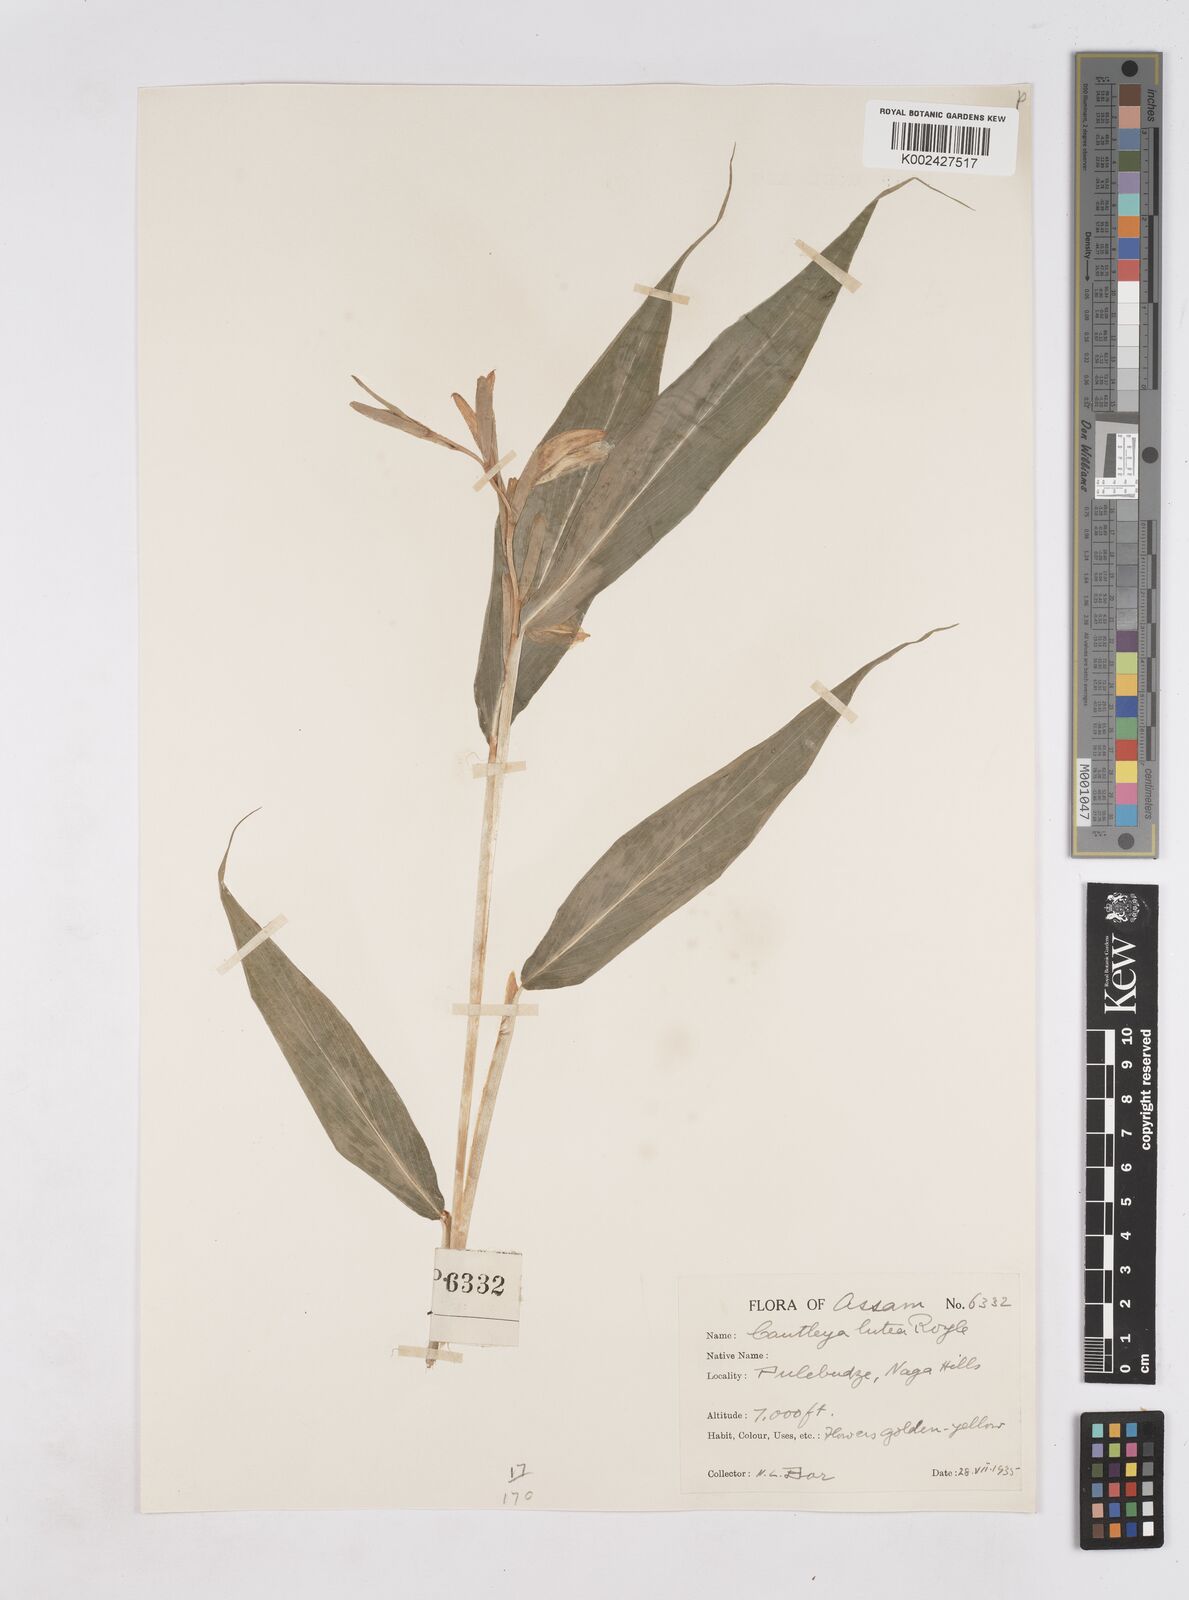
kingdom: Plantae
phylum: Tracheophyta
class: Liliopsida
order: Zingiberales
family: Zingiberaceae
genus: Cautleya
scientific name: Cautleya gracilis
